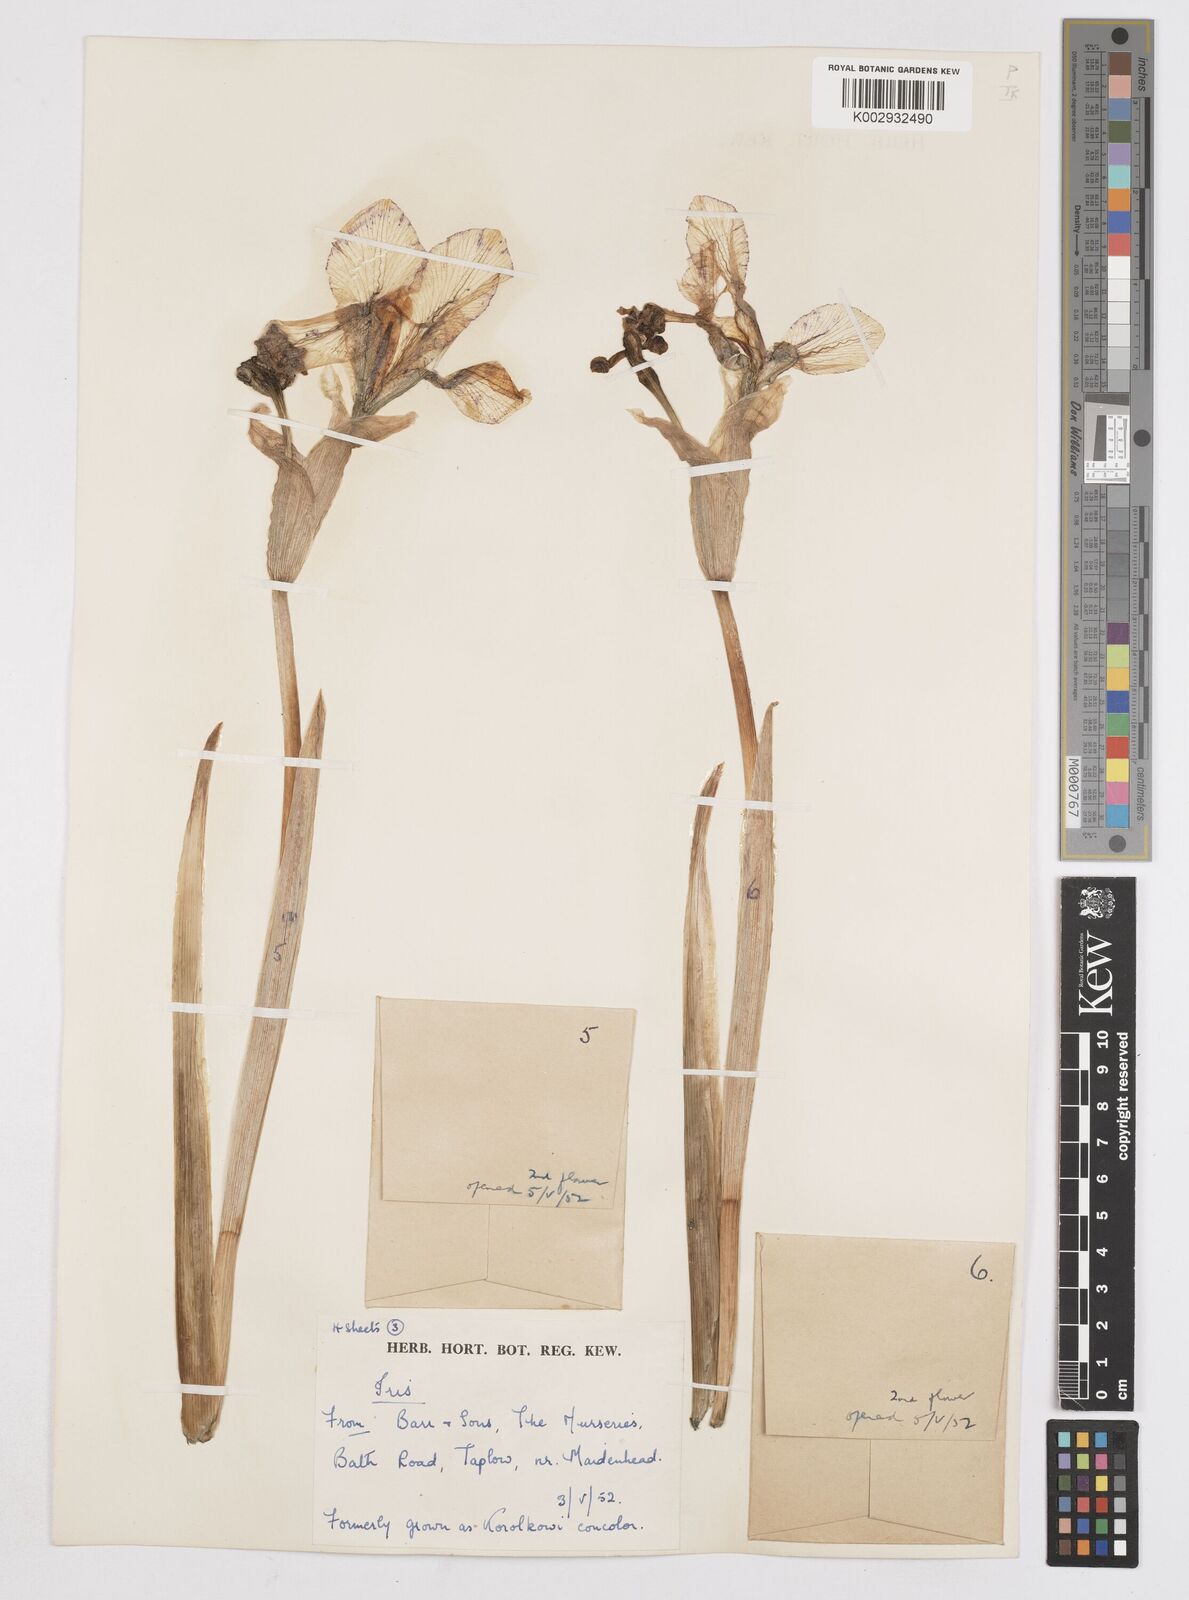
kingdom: Plantae
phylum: Tracheophyta
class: Liliopsida
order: Asparagales
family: Iridaceae
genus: Iris
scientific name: Iris
